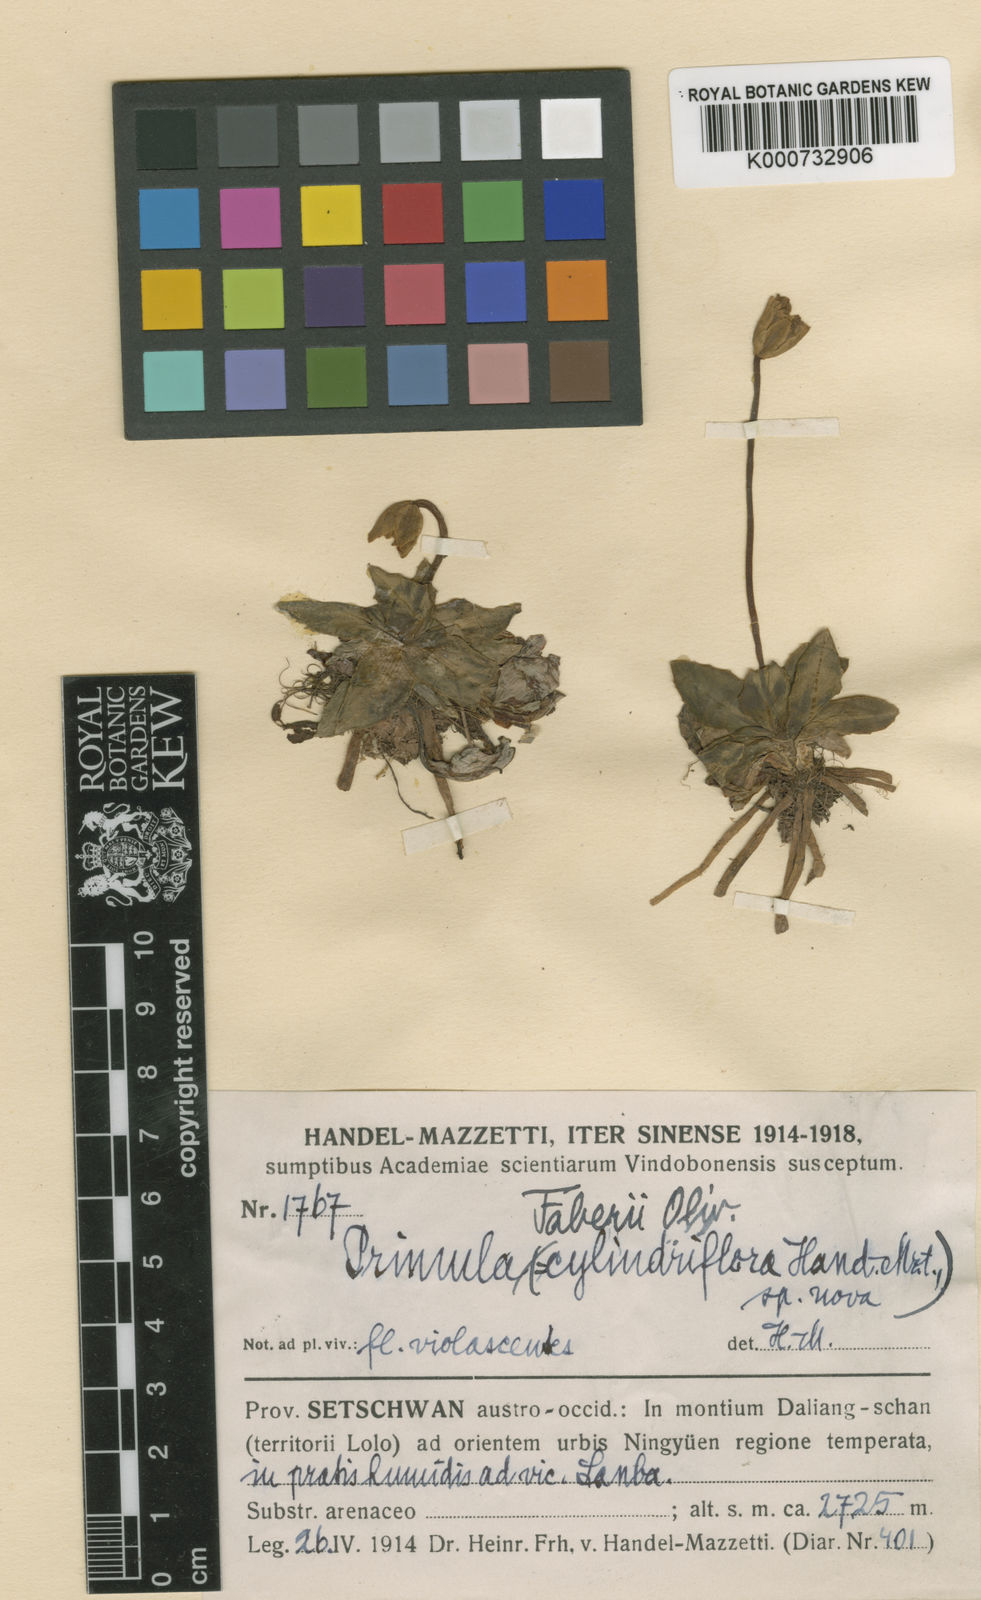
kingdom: Plantae
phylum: Tracheophyta
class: Magnoliopsida
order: Ericales
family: Primulaceae
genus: Primula
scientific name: Primula faberi
